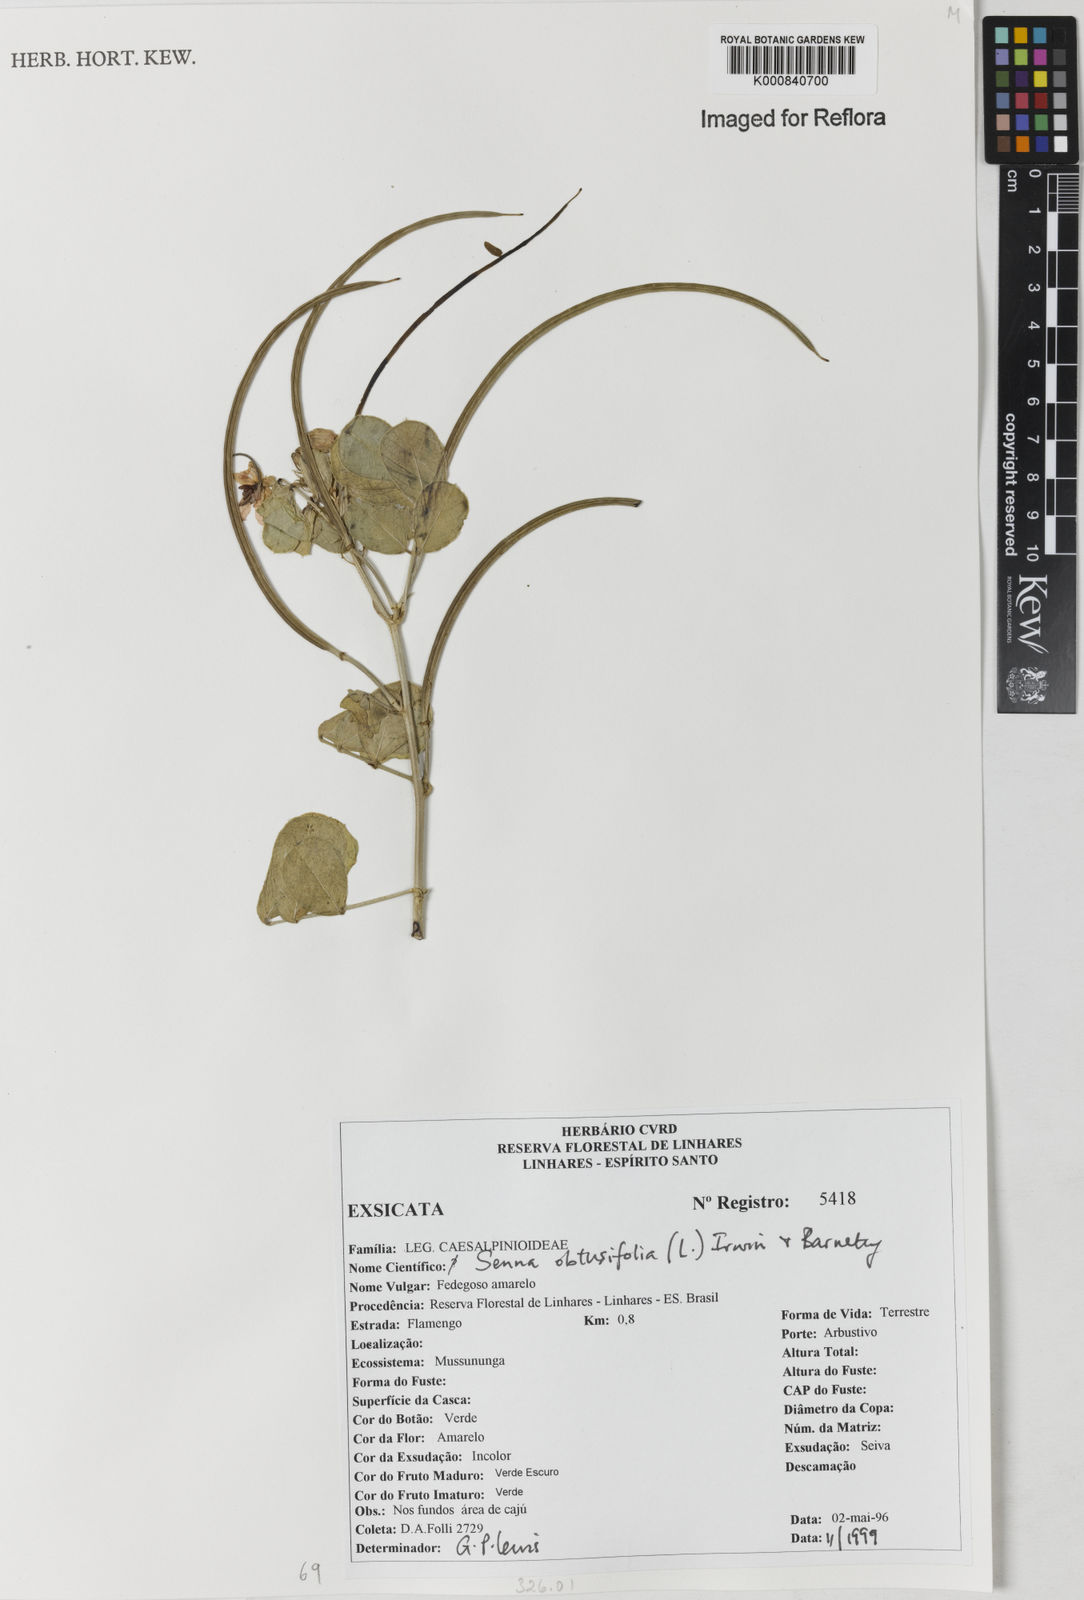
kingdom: Plantae
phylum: Tracheophyta
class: Magnoliopsida
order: Fabales
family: Fabaceae
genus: Senna
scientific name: Senna obtusifolia
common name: Java-bean
